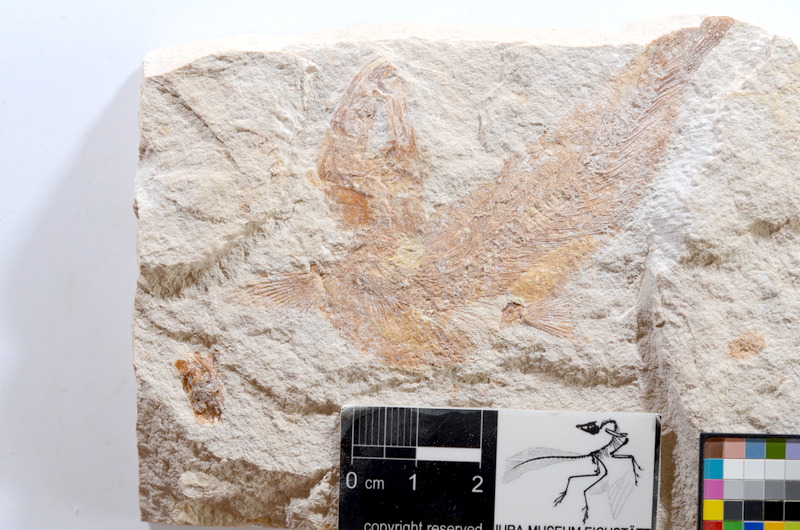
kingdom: Animalia
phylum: Chordata
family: Ascalaboidae
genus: Tharsis
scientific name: Tharsis dubius
